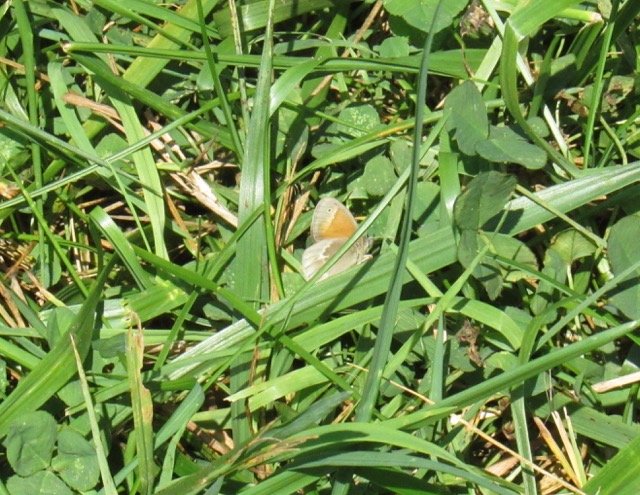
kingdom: Animalia
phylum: Arthropoda
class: Insecta
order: Lepidoptera
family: Nymphalidae
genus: Coenonympha
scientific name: Coenonympha tullia
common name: Large Heath
